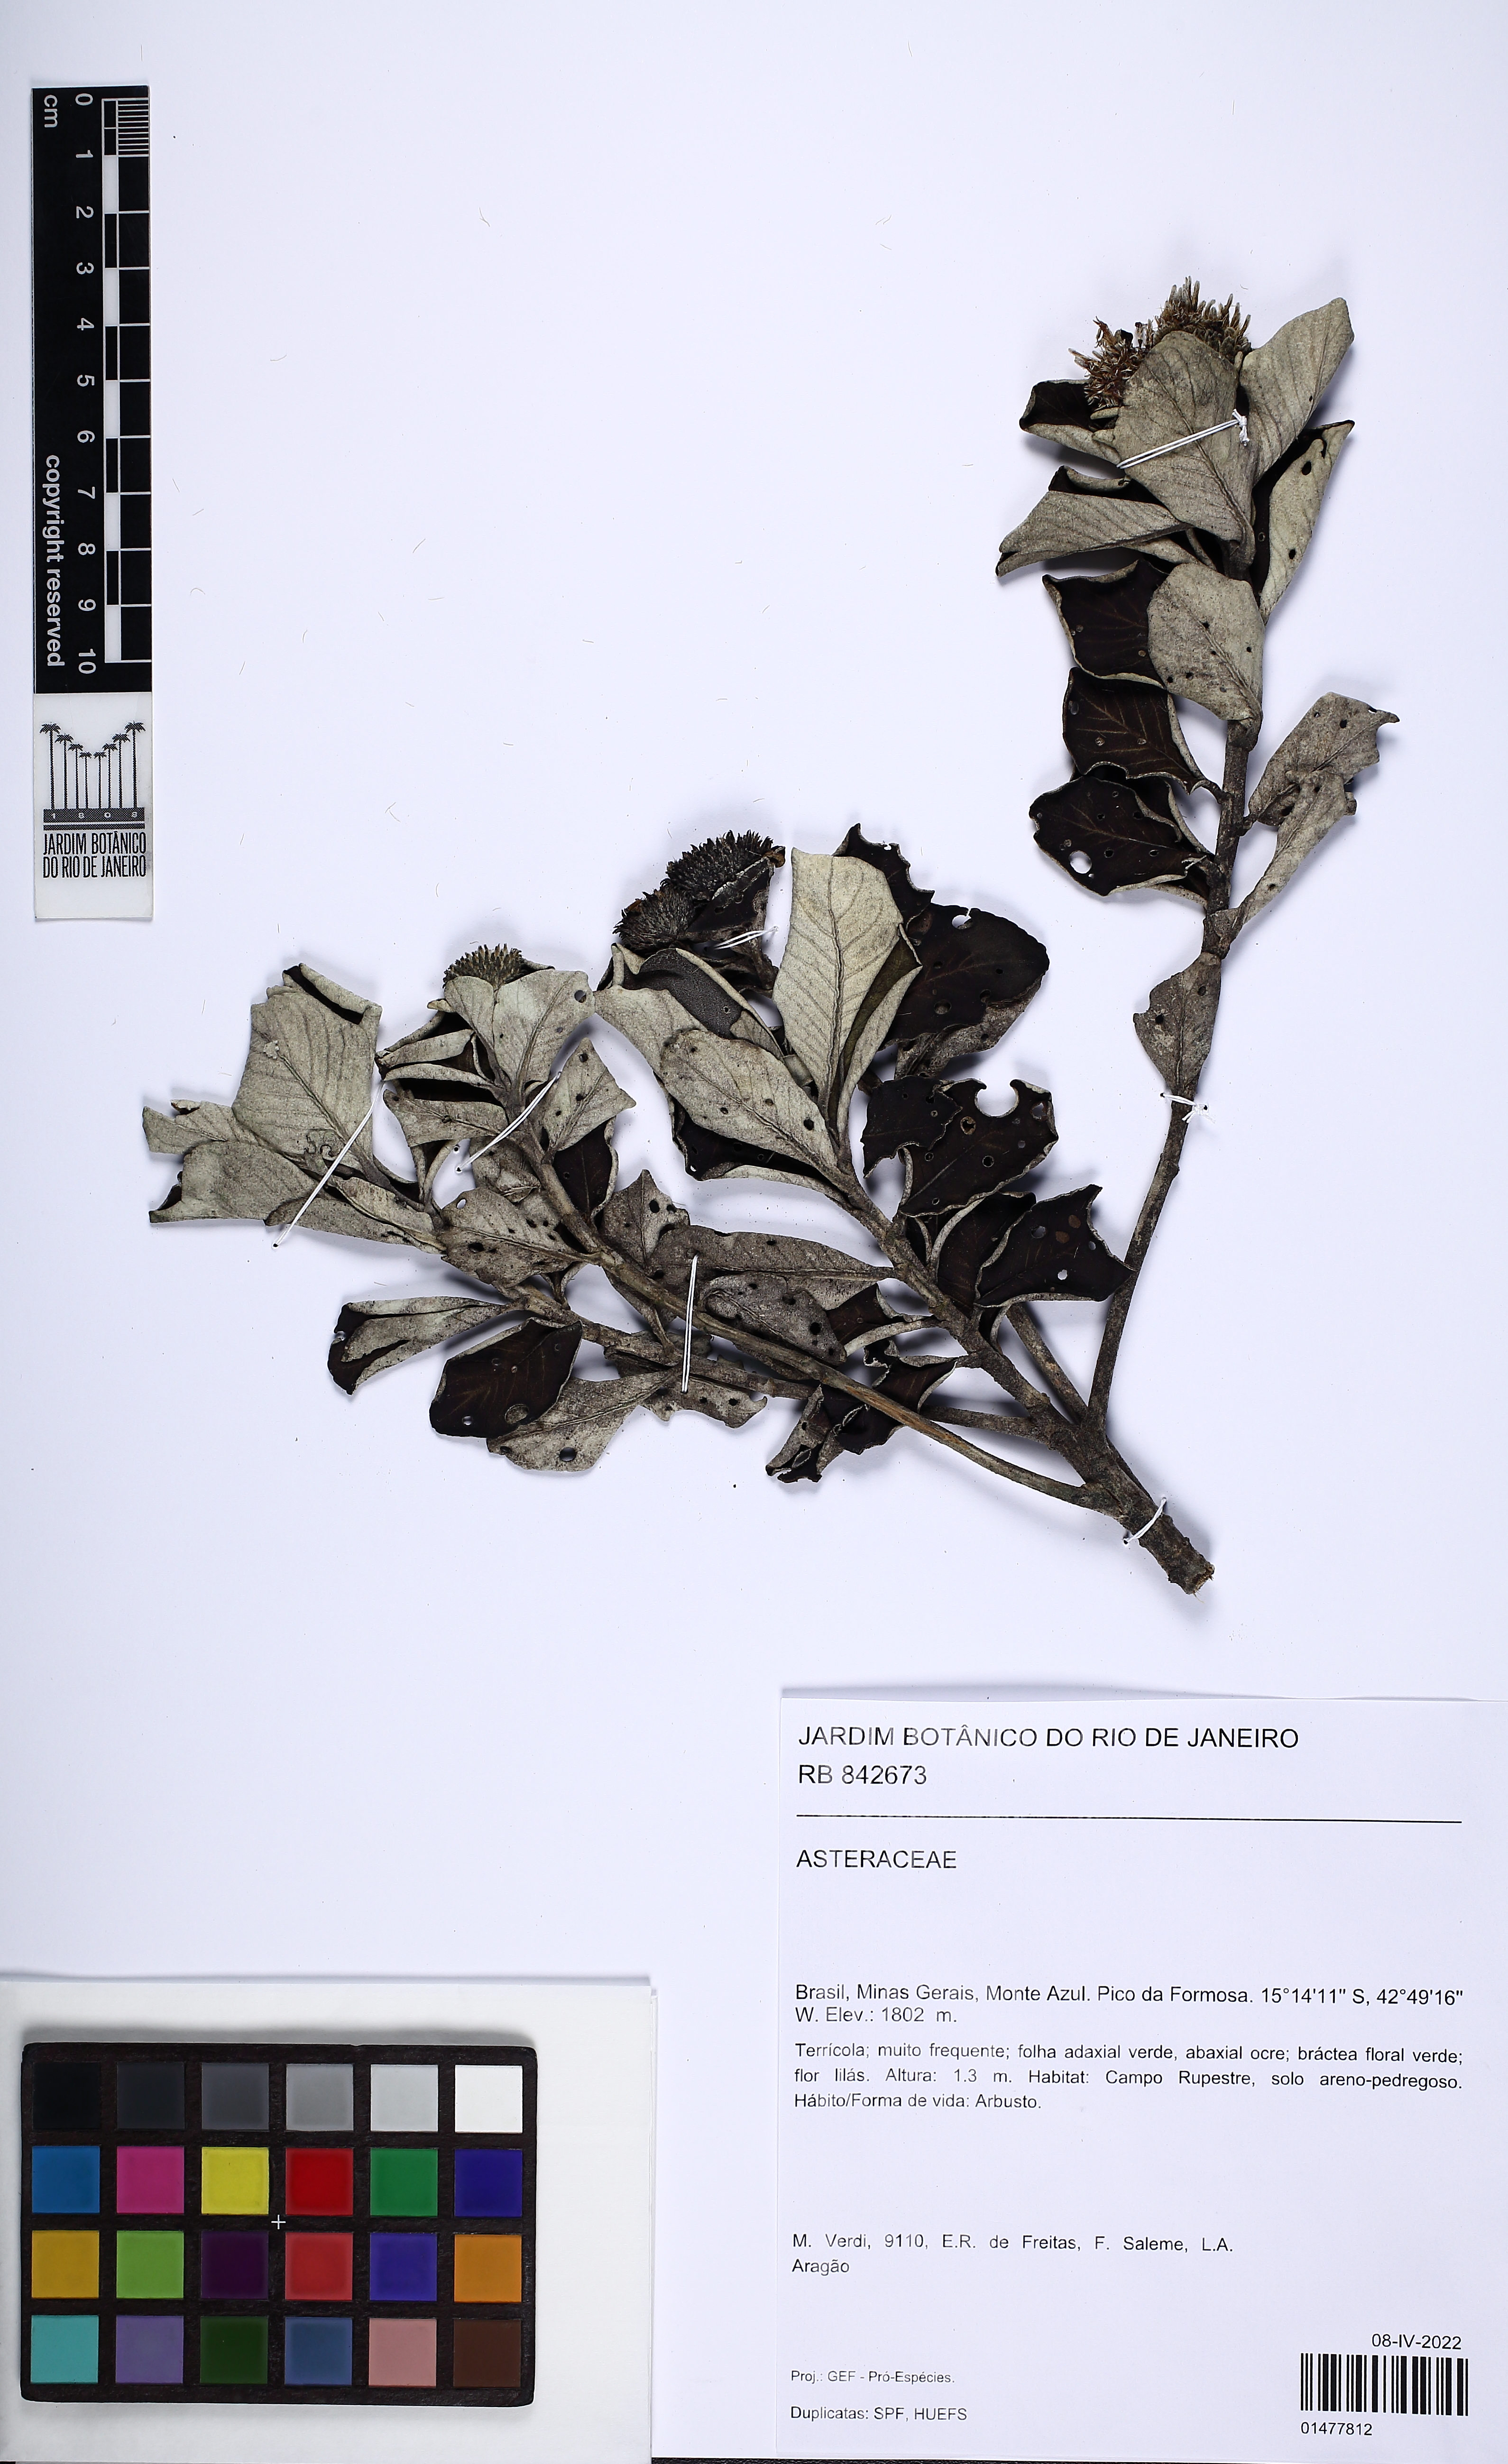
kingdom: Plantae
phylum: Tracheophyta
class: Magnoliopsida
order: Asterales
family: Asteraceae
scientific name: Asteraceae
